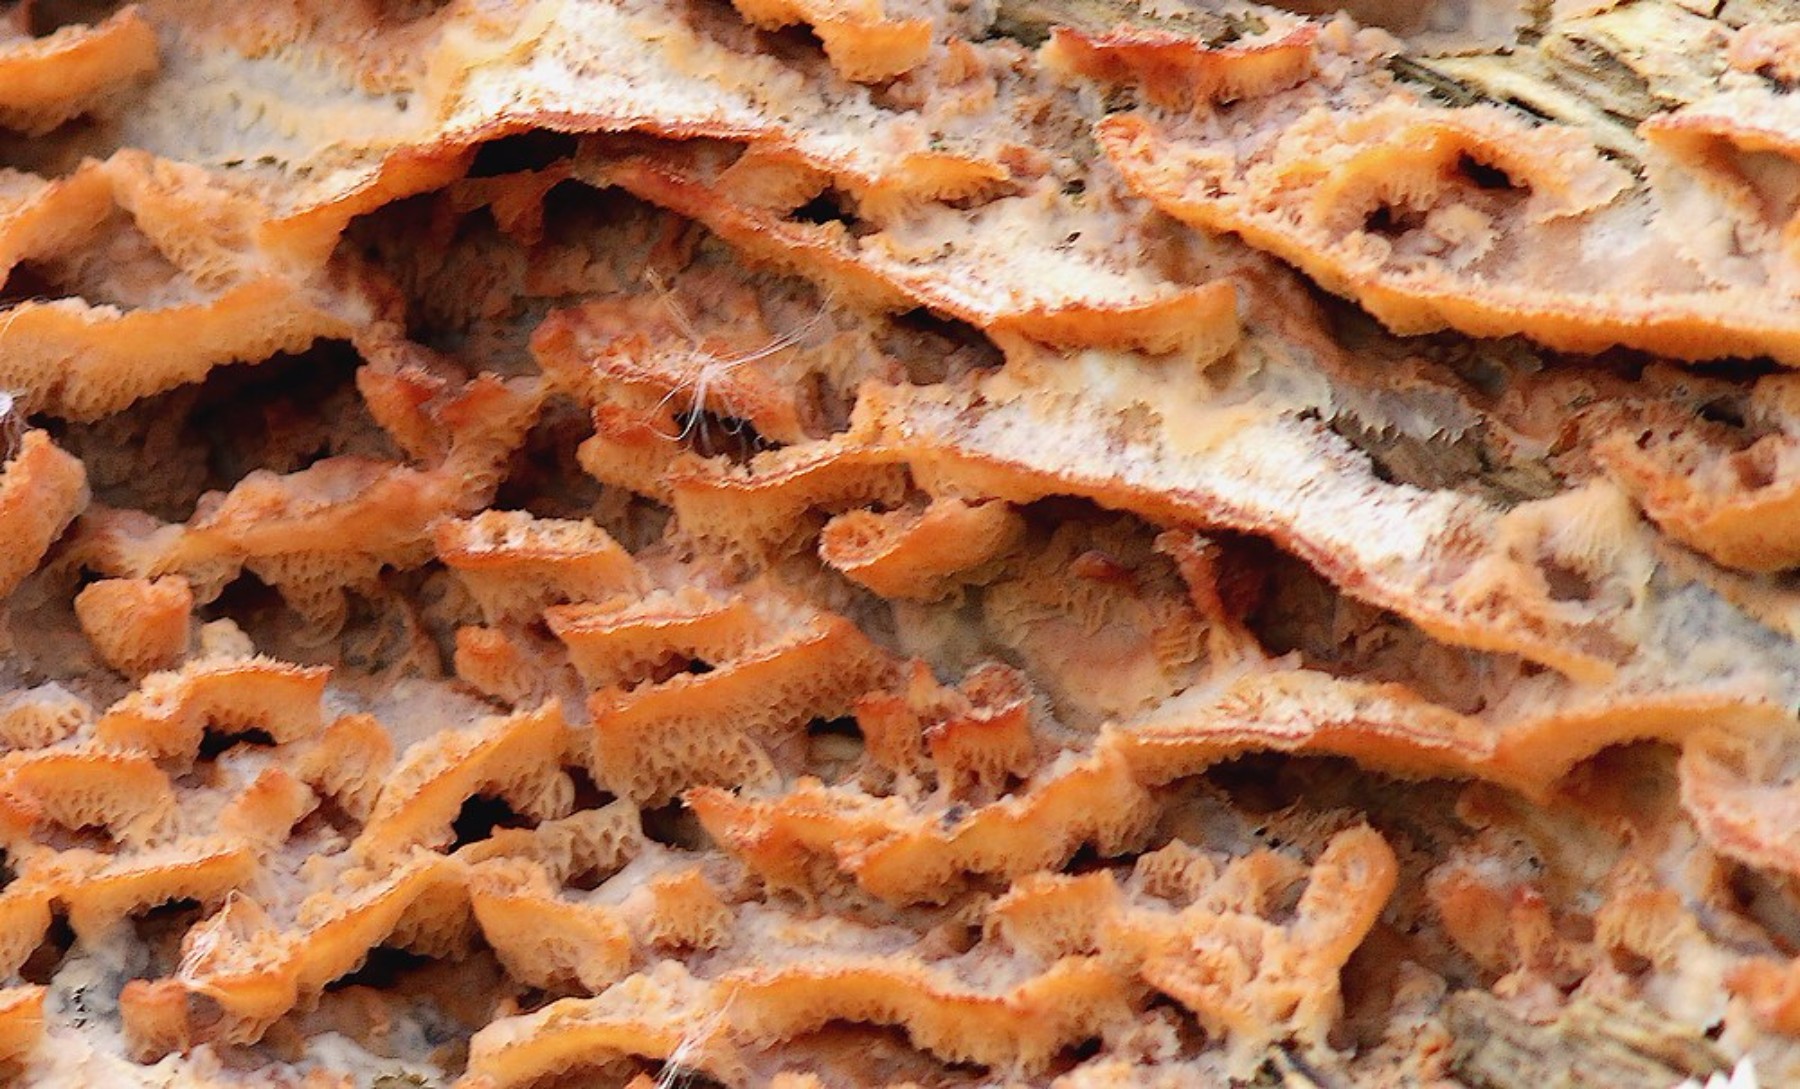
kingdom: Fungi
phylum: Basidiomycota
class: Agaricomycetes
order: Polyporales
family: Meruliaceae
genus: Phlebia
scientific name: Phlebia tremellosa
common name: bævrende åresvamp
